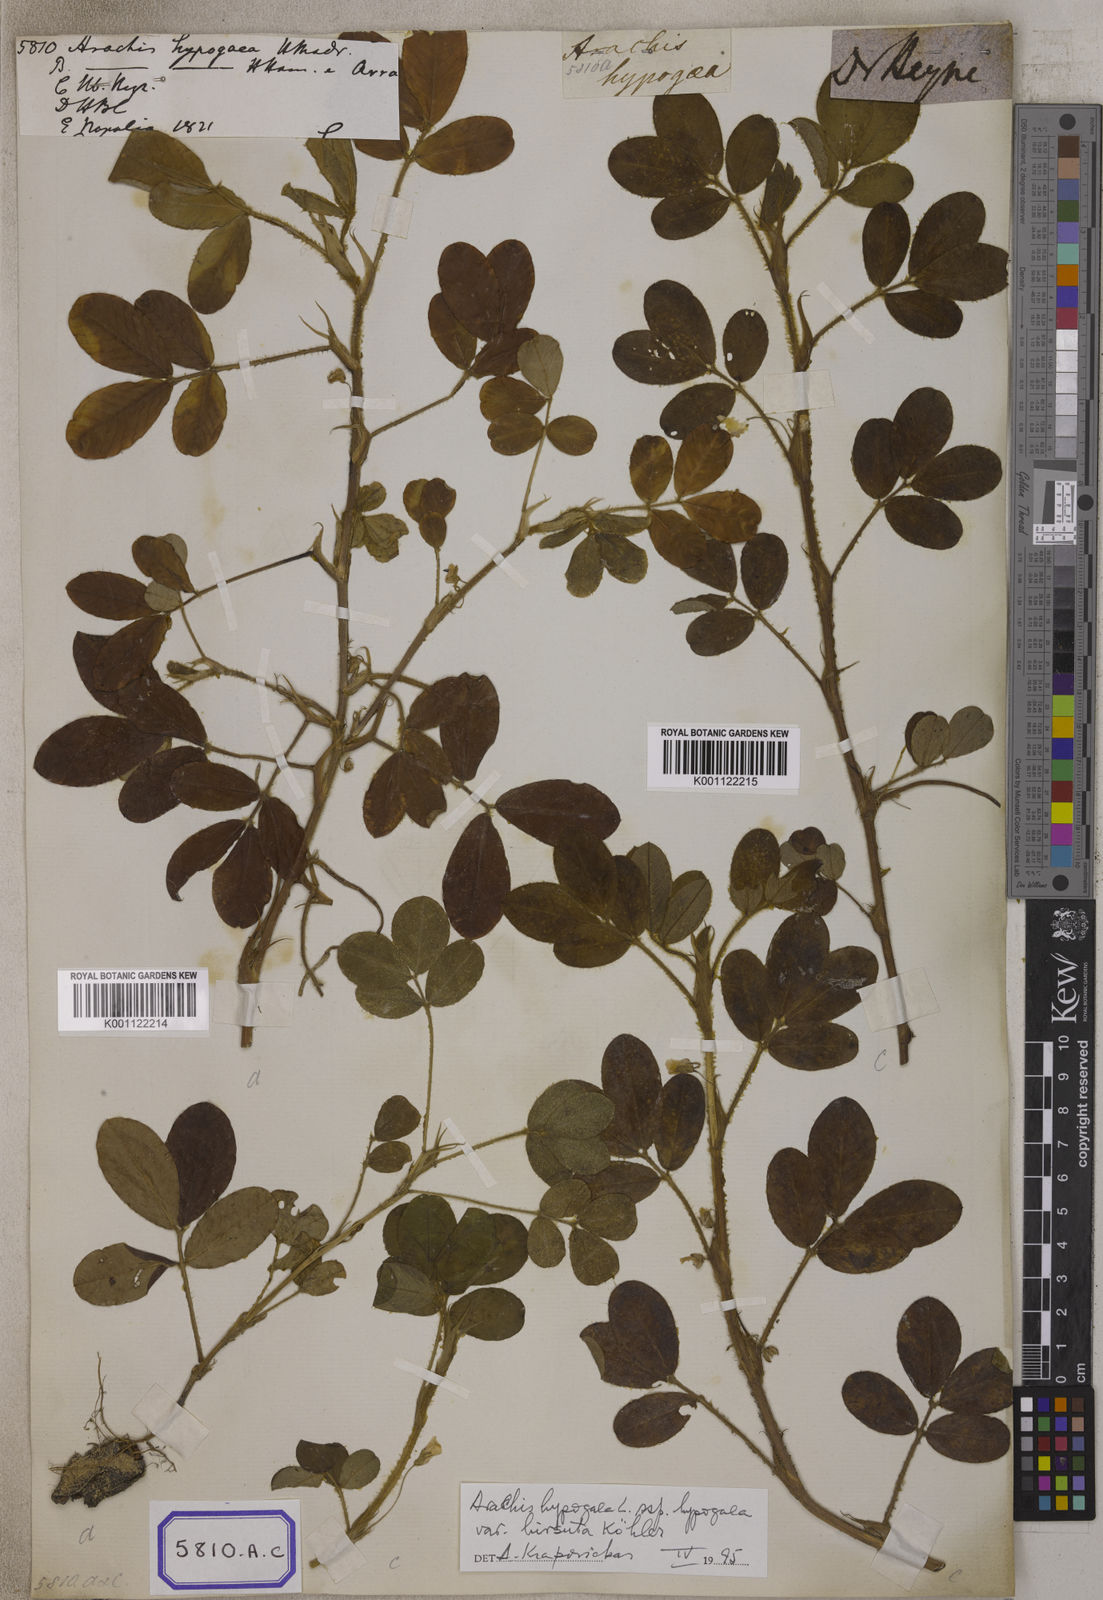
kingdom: Plantae
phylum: Tracheophyta
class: Magnoliopsida
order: Fabales
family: Fabaceae
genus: Arachis
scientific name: Arachis hypogaea
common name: Peanut
